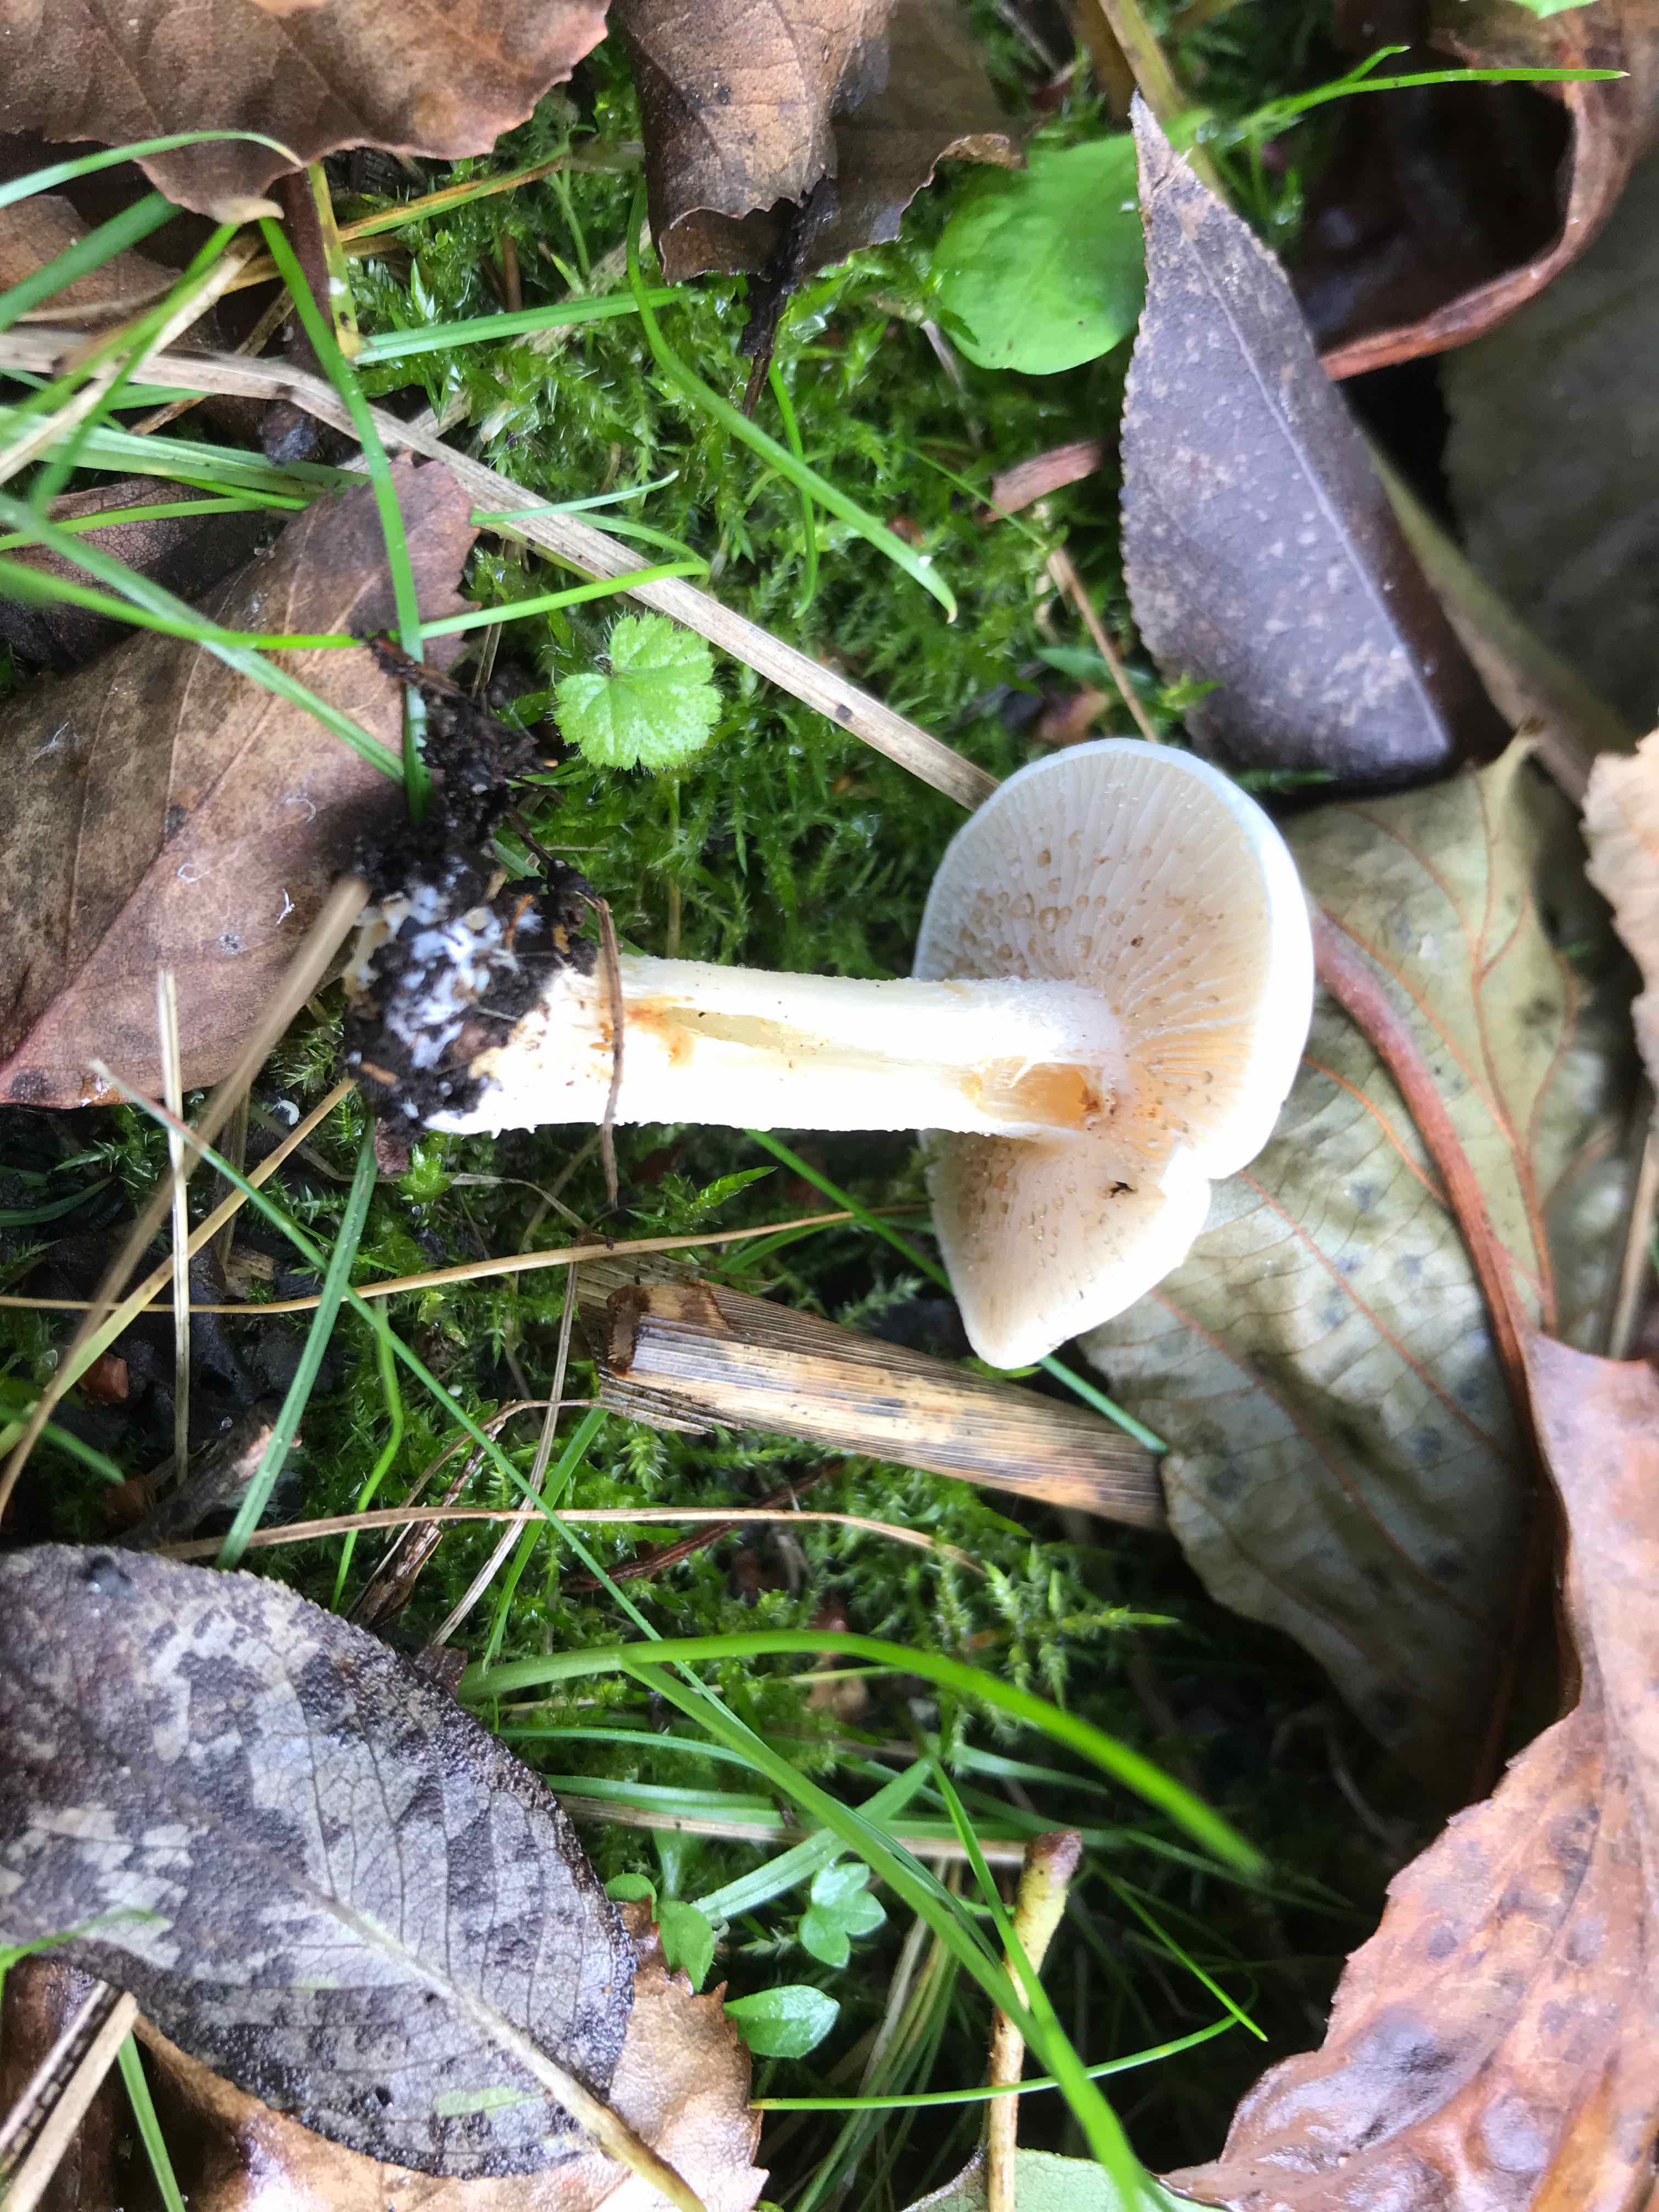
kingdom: Fungi
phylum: Basidiomycota
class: Agaricomycetes
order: Agaricales
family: Hymenogastraceae
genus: Hebeloma
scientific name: Hebeloma crustuliniforme
